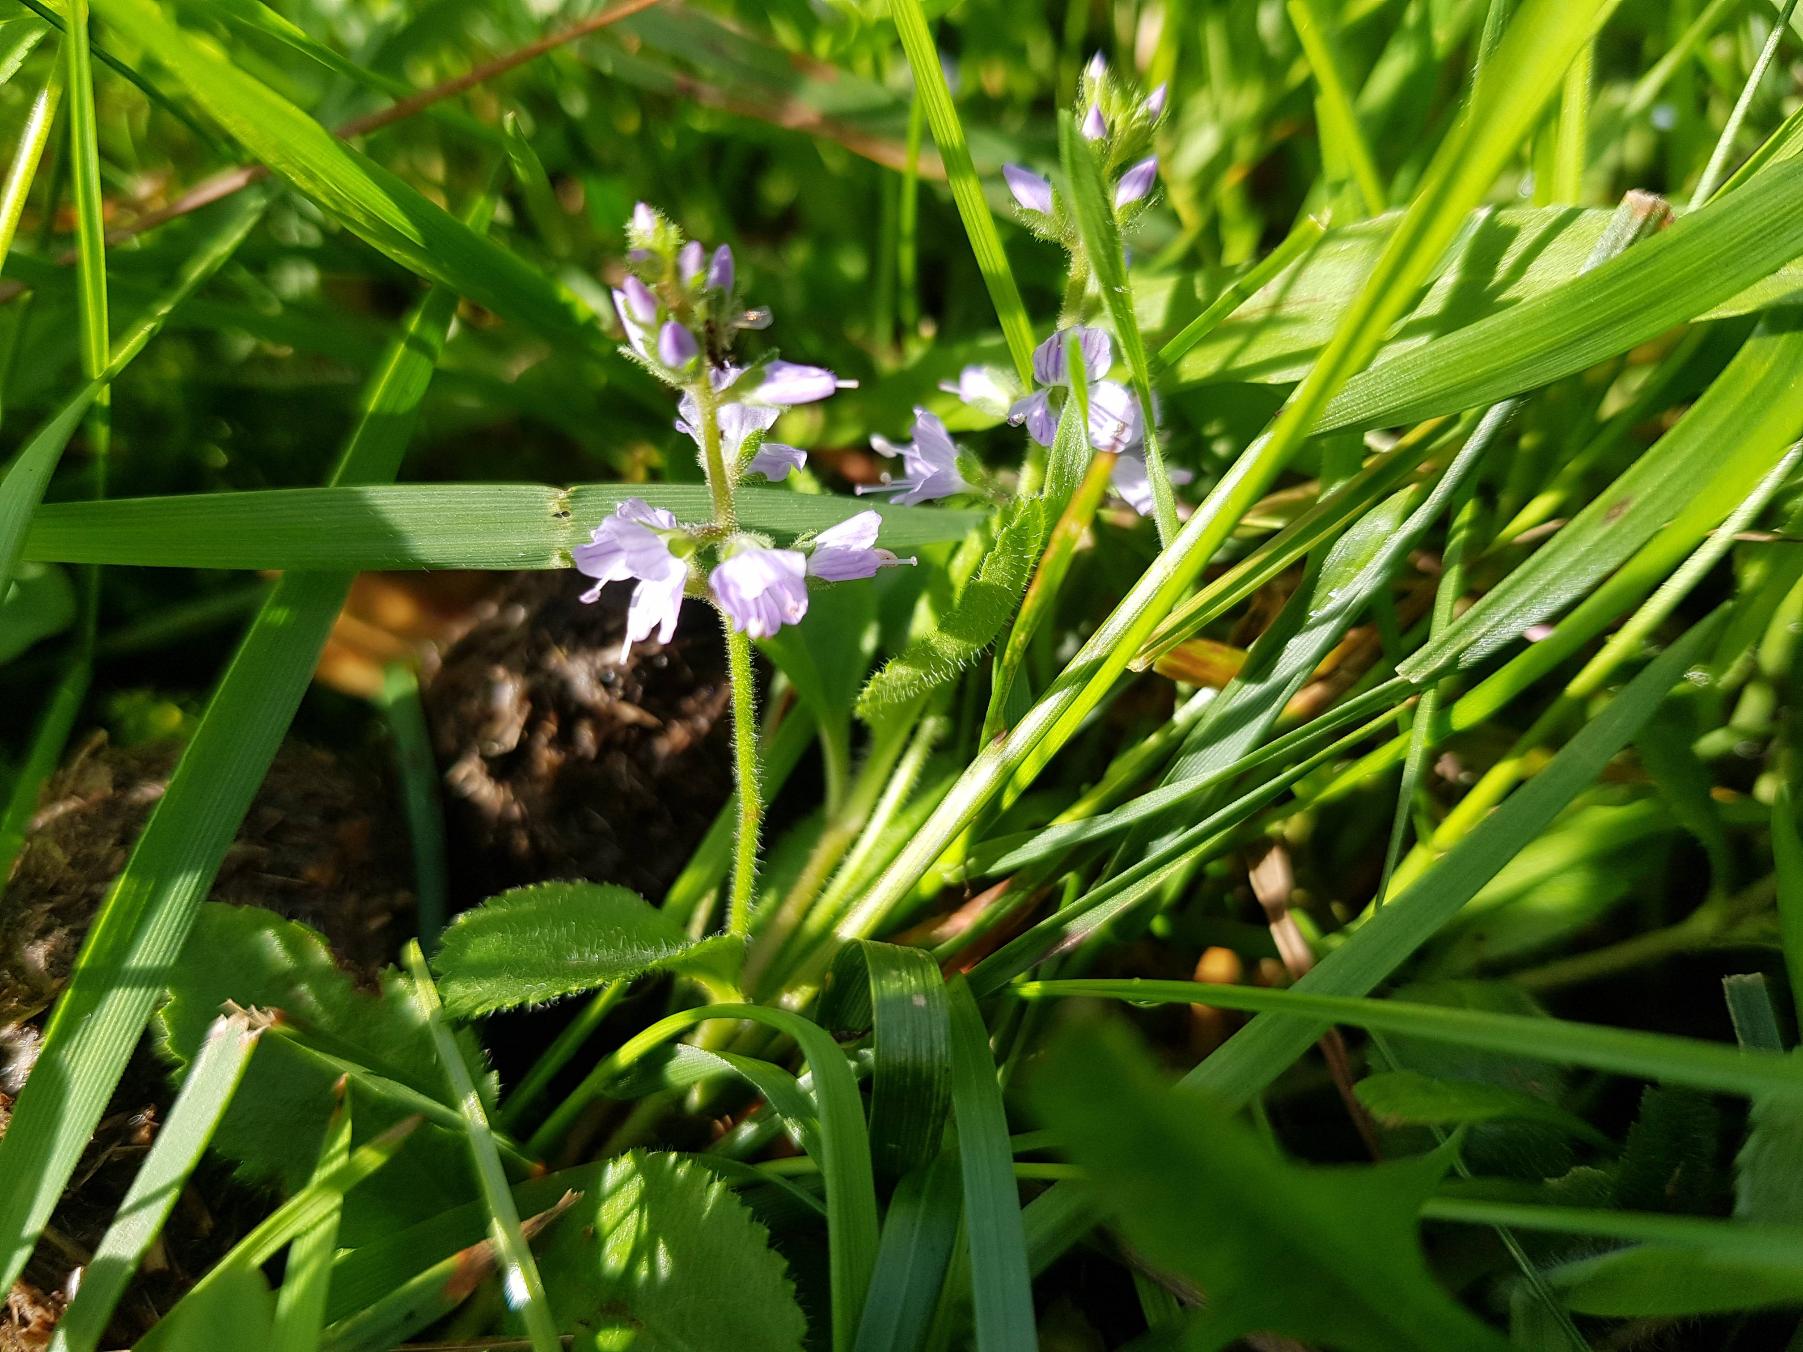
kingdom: Plantae
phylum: Tracheophyta
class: Magnoliopsida
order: Lamiales
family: Plantaginaceae
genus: Veronica
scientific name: Veronica officinalis
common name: Læge-ærenpris
